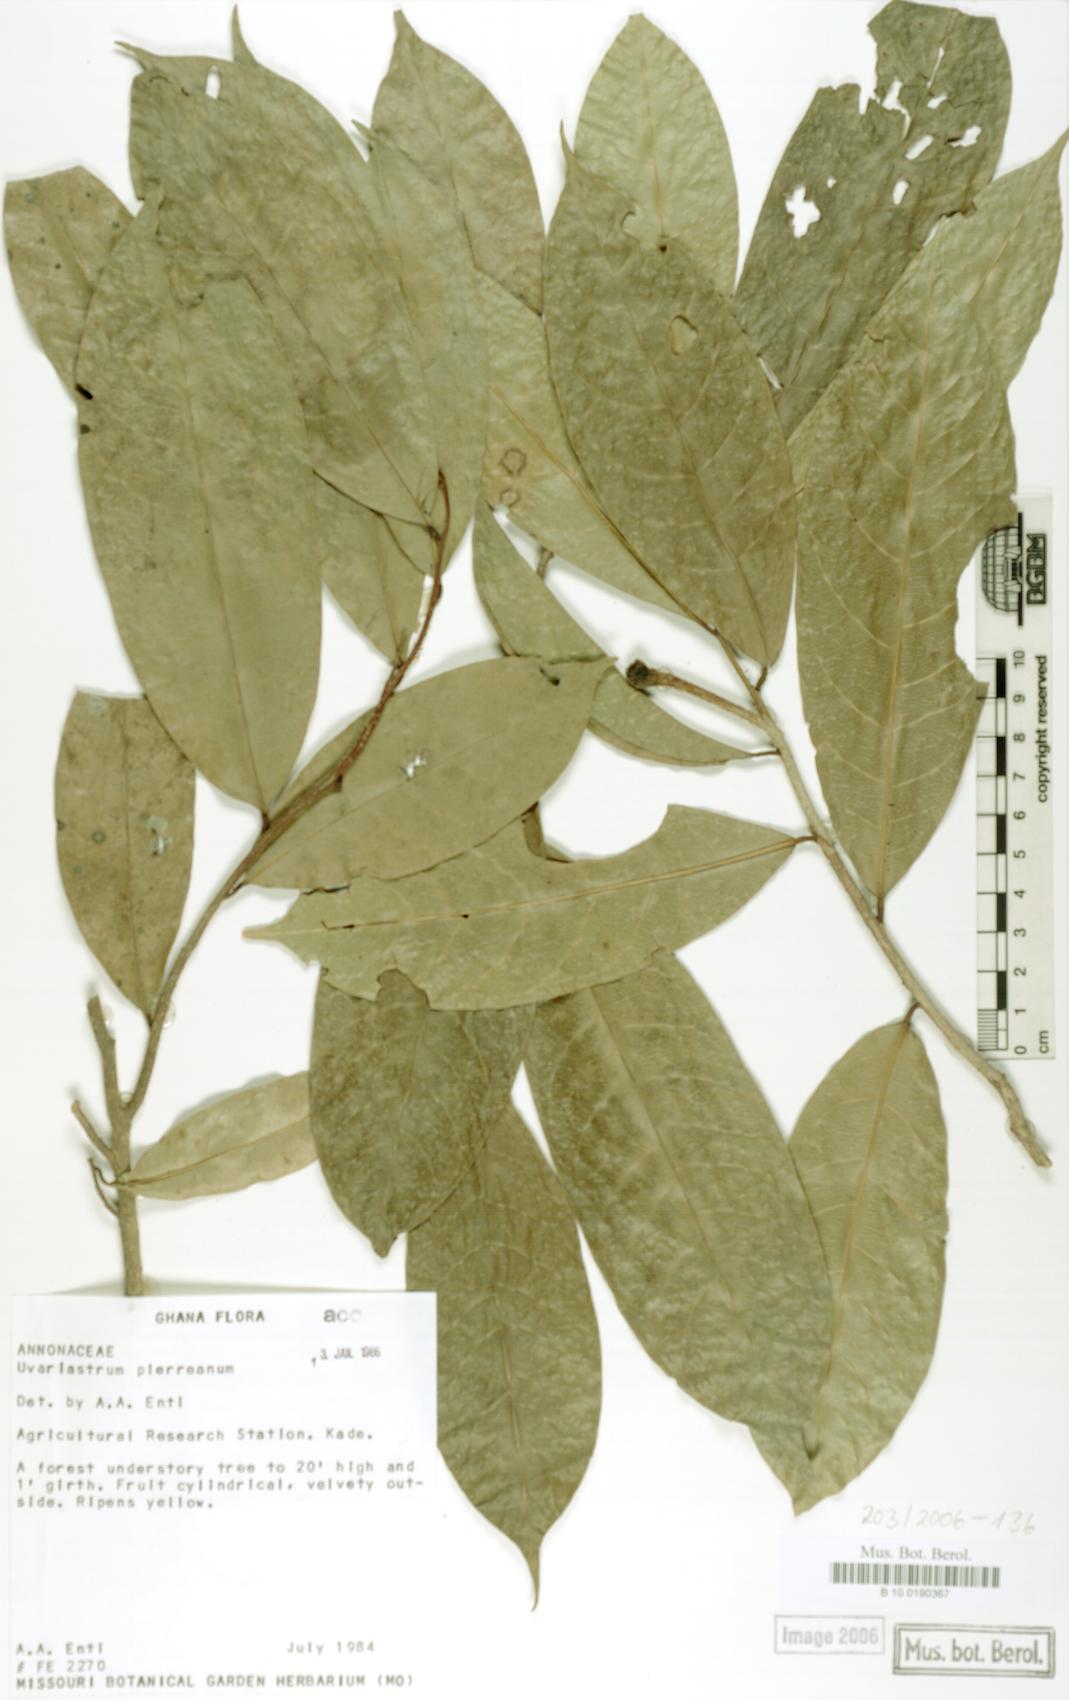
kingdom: Plantae
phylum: Tracheophyta
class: Magnoliopsida
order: Magnoliales
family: Annonaceae
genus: Uvariastrum
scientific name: Uvariastrum pierreanum
